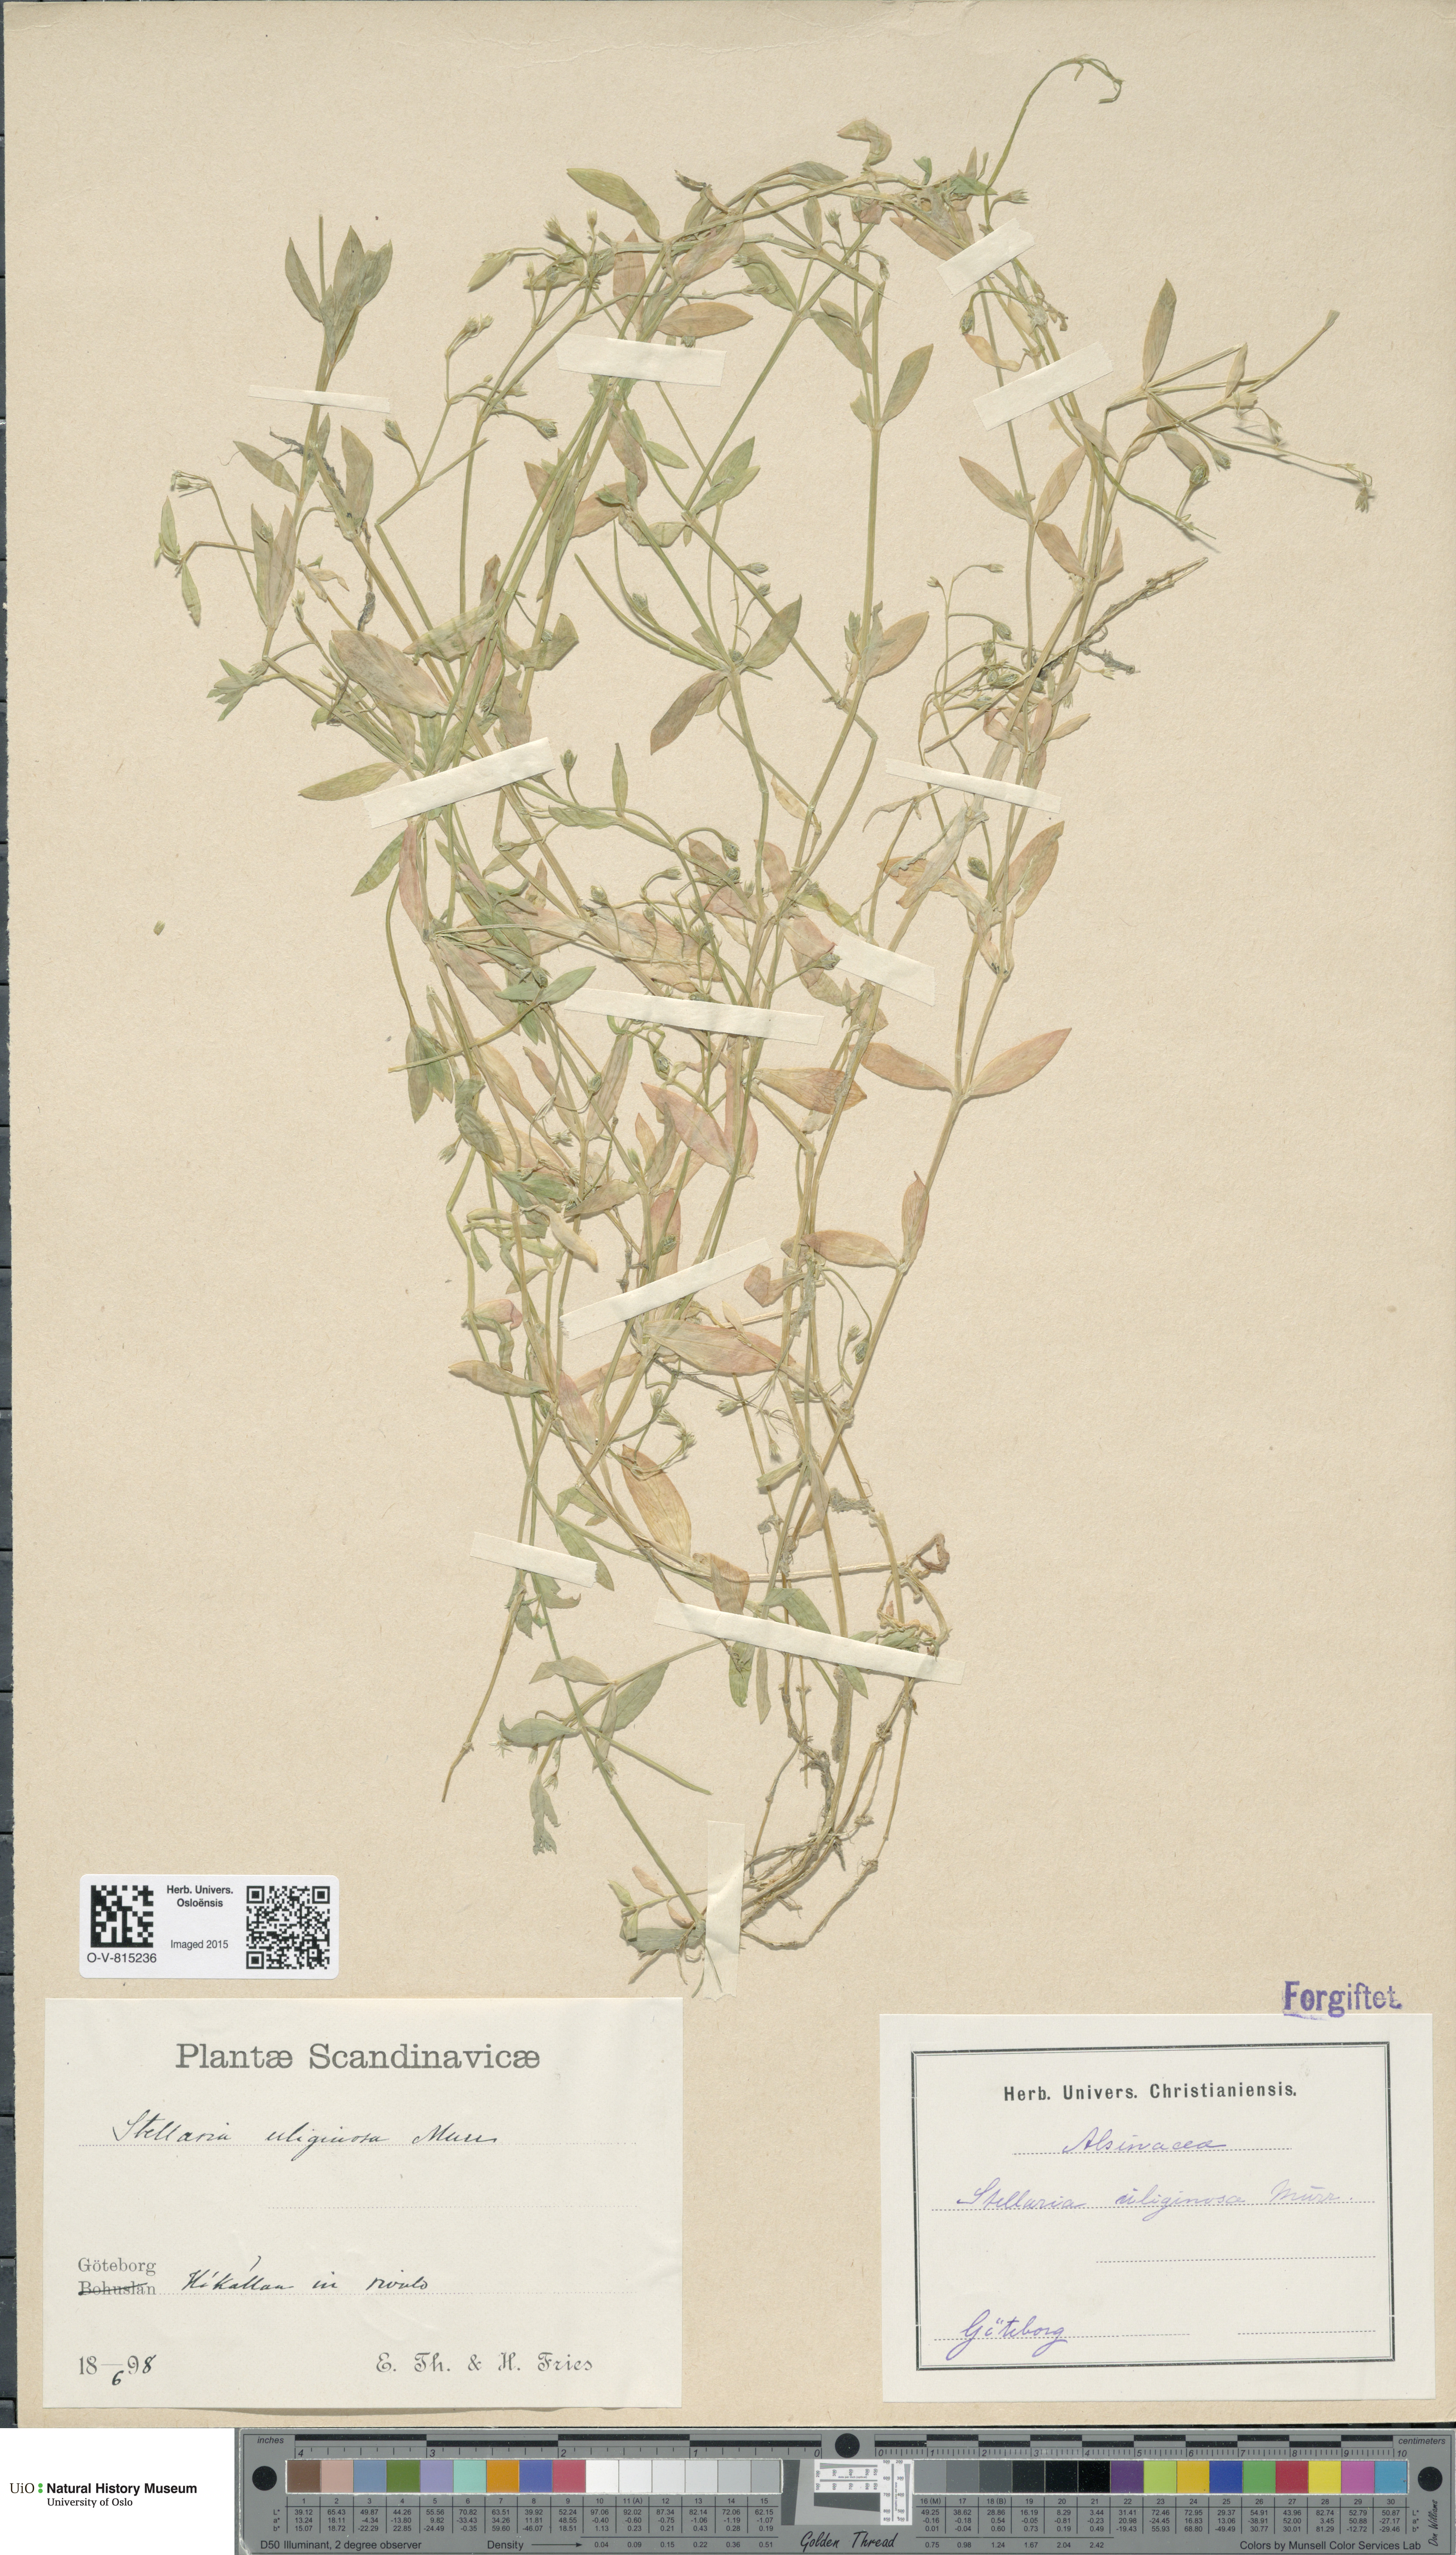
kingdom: Plantae
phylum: Tracheophyta
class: Magnoliopsida
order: Caryophyllales
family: Caryophyllaceae
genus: Stellaria
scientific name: Stellaria alsine
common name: Bog stitchwort
